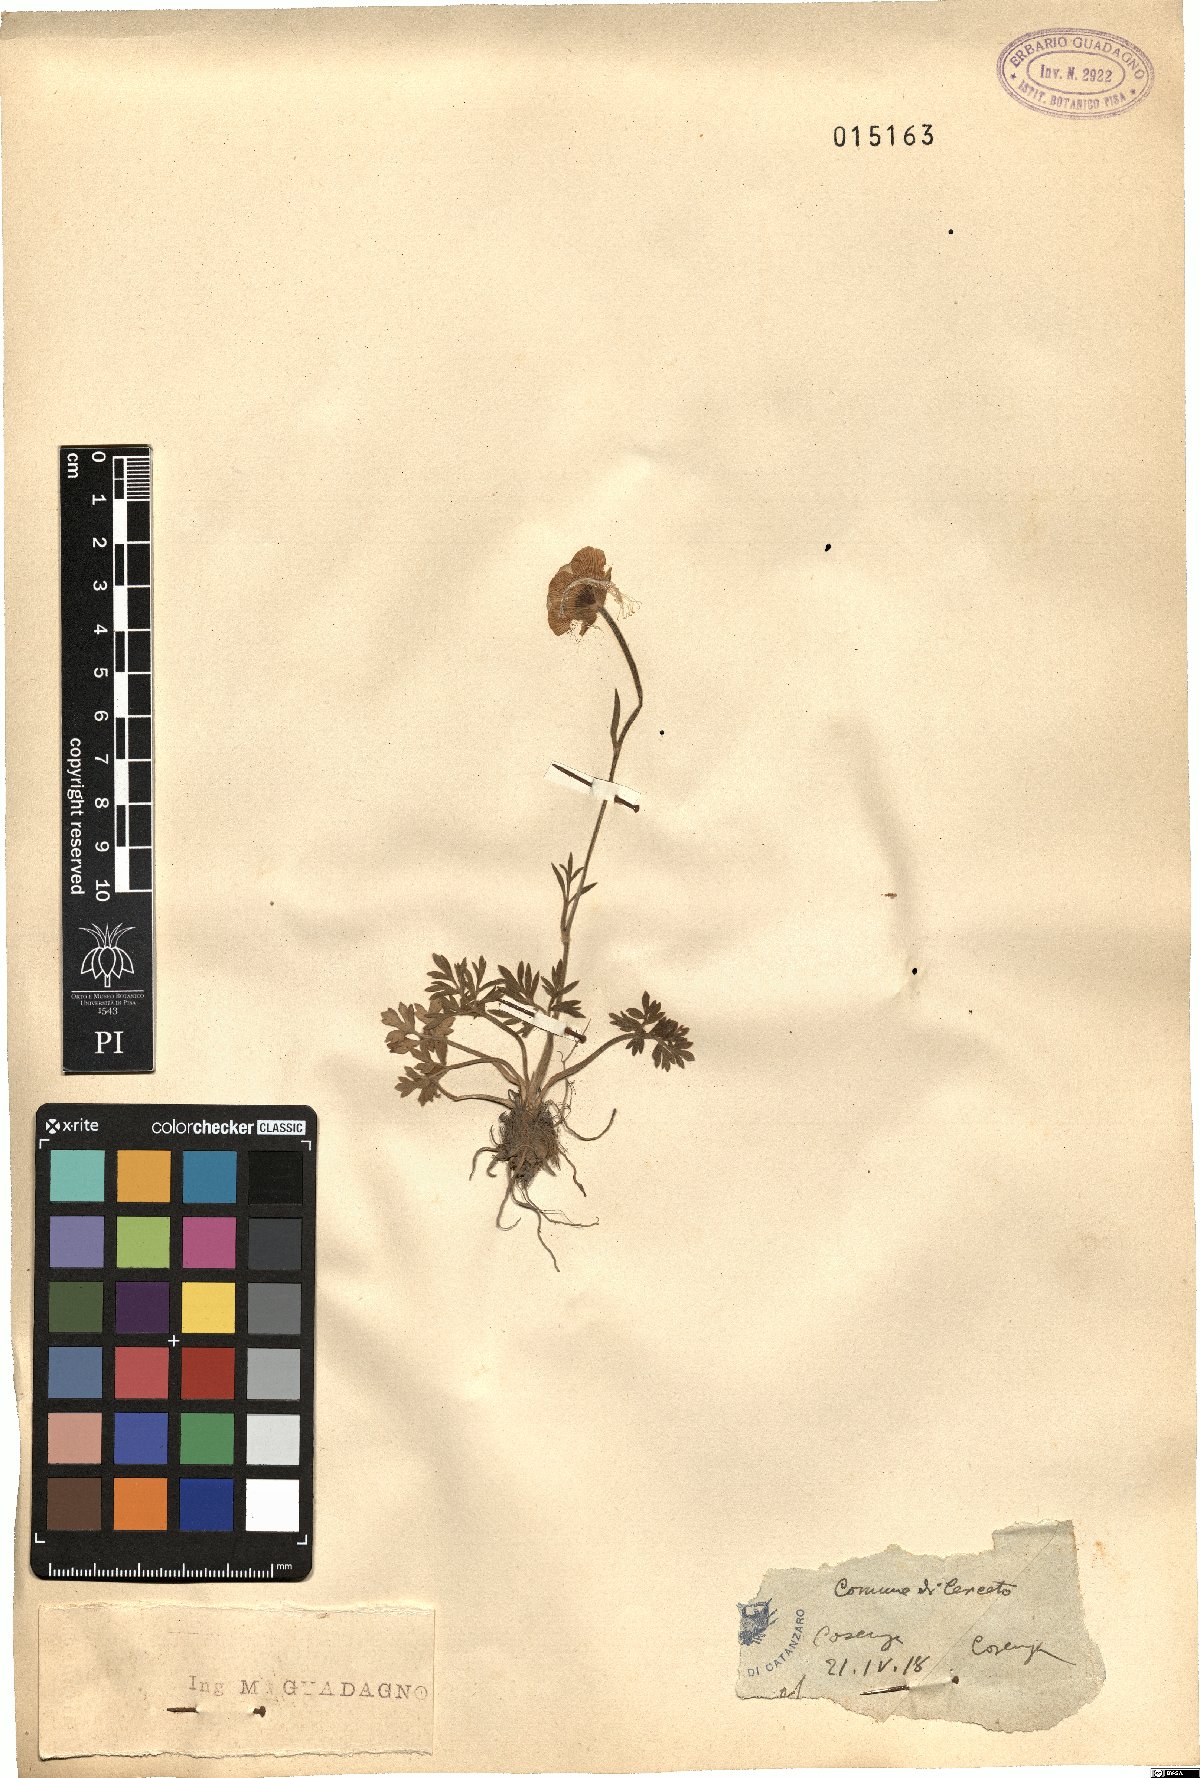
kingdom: Plantae
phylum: Tracheophyta
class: Magnoliopsida
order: Ranunculales
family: Ranunculaceae
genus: Ranunculus
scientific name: Ranunculus
